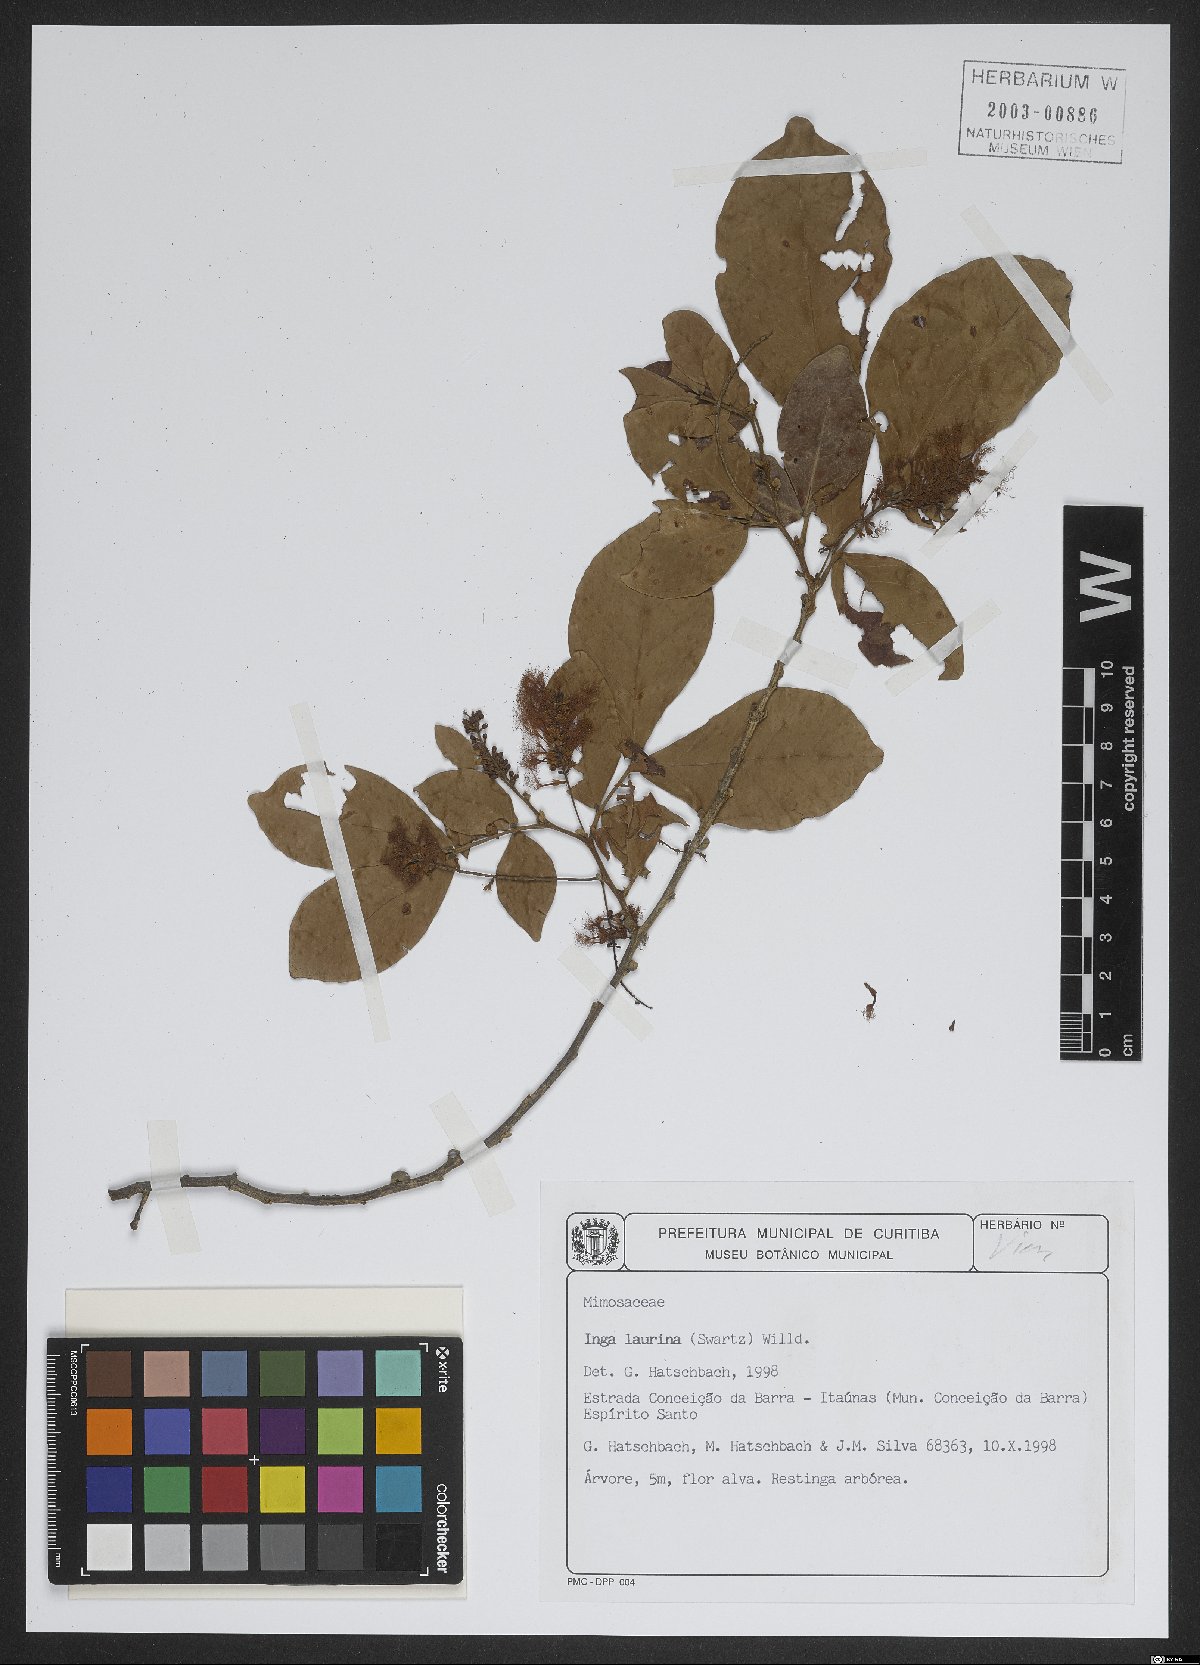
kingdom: Plantae
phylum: Tracheophyta
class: Magnoliopsida
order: Fabales
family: Fabaceae
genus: Inga
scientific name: Inga laurina
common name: Red wood
